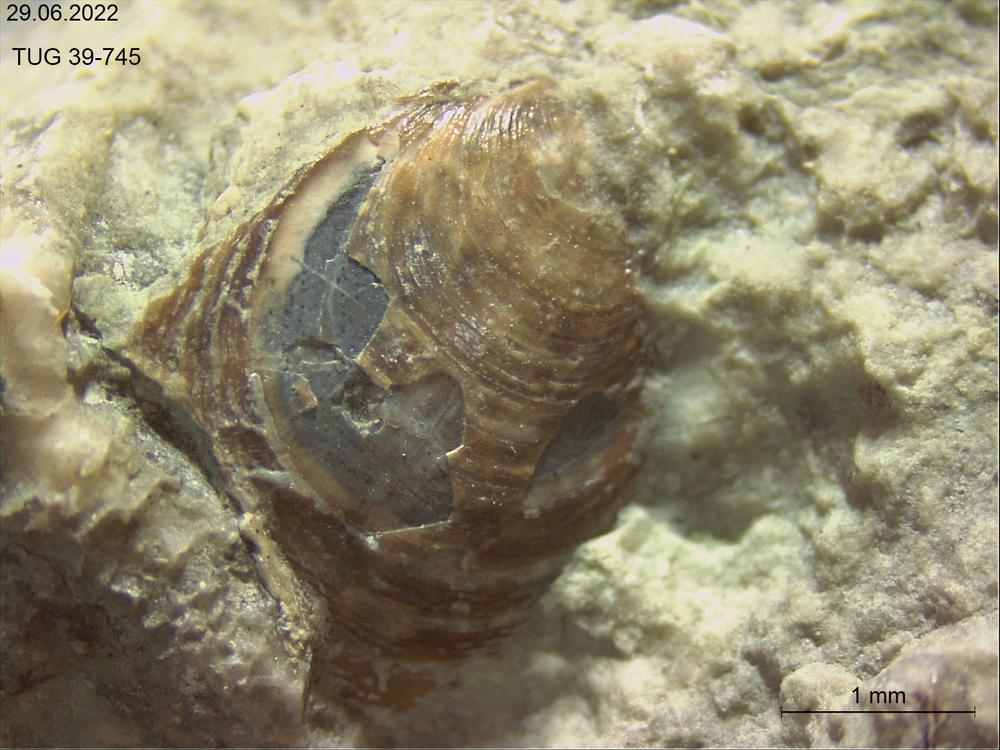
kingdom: Animalia
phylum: Brachiopoda
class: Lingulata
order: Lingulida
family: Pseudolingulidae
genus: Pseudolingula
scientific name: Pseudolingula
